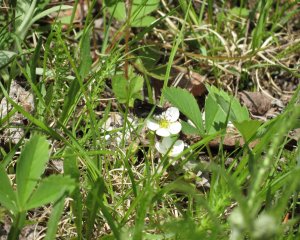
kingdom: Animalia
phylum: Arthropoda
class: Insecta
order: Lepidoptera
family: Hesperiidae
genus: Mastor
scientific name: Mastor vialis
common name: Common Roadside-Skipper
